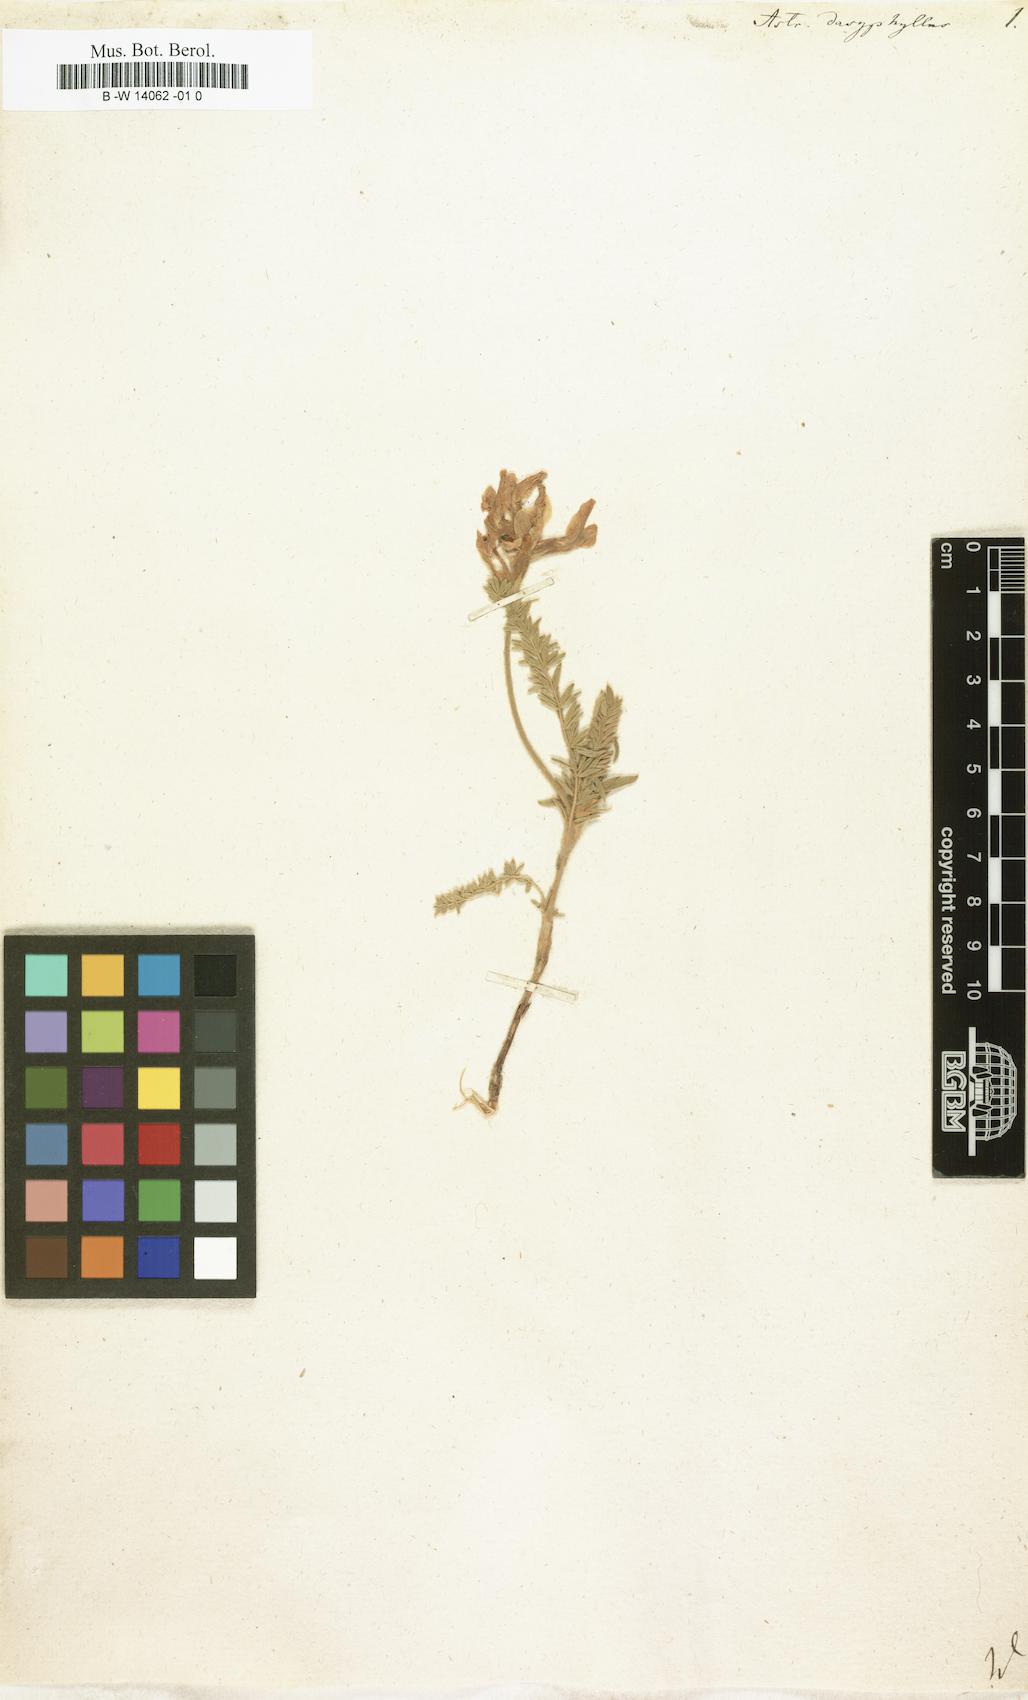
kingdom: Plantae
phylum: Tracheophyta
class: Magnoliopsida
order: Fabales
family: Fabaceae
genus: Oxytropis
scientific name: Oxytropis lanata
